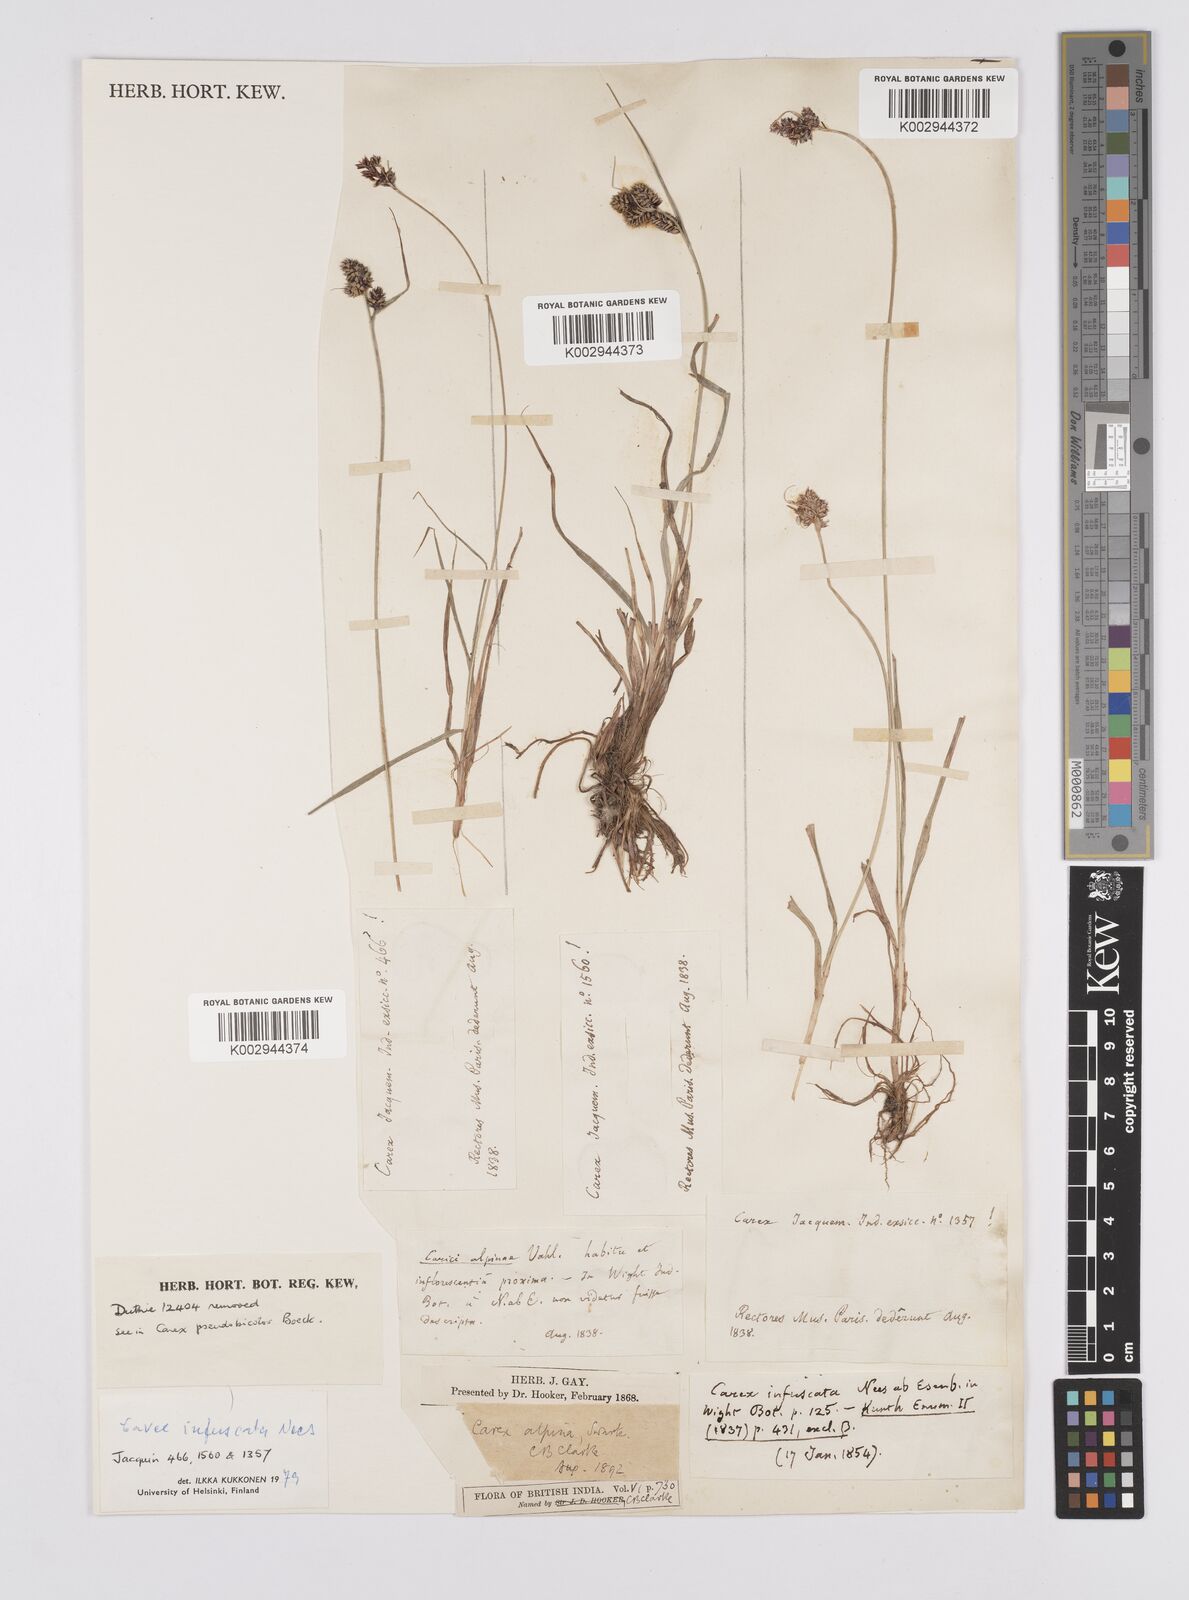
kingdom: Plantae
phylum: Tracheophyta
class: Liliopsida
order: Poales
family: Cyperaceae
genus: Carex
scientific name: Carex norvegica
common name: Close-headed alpine-sedge
